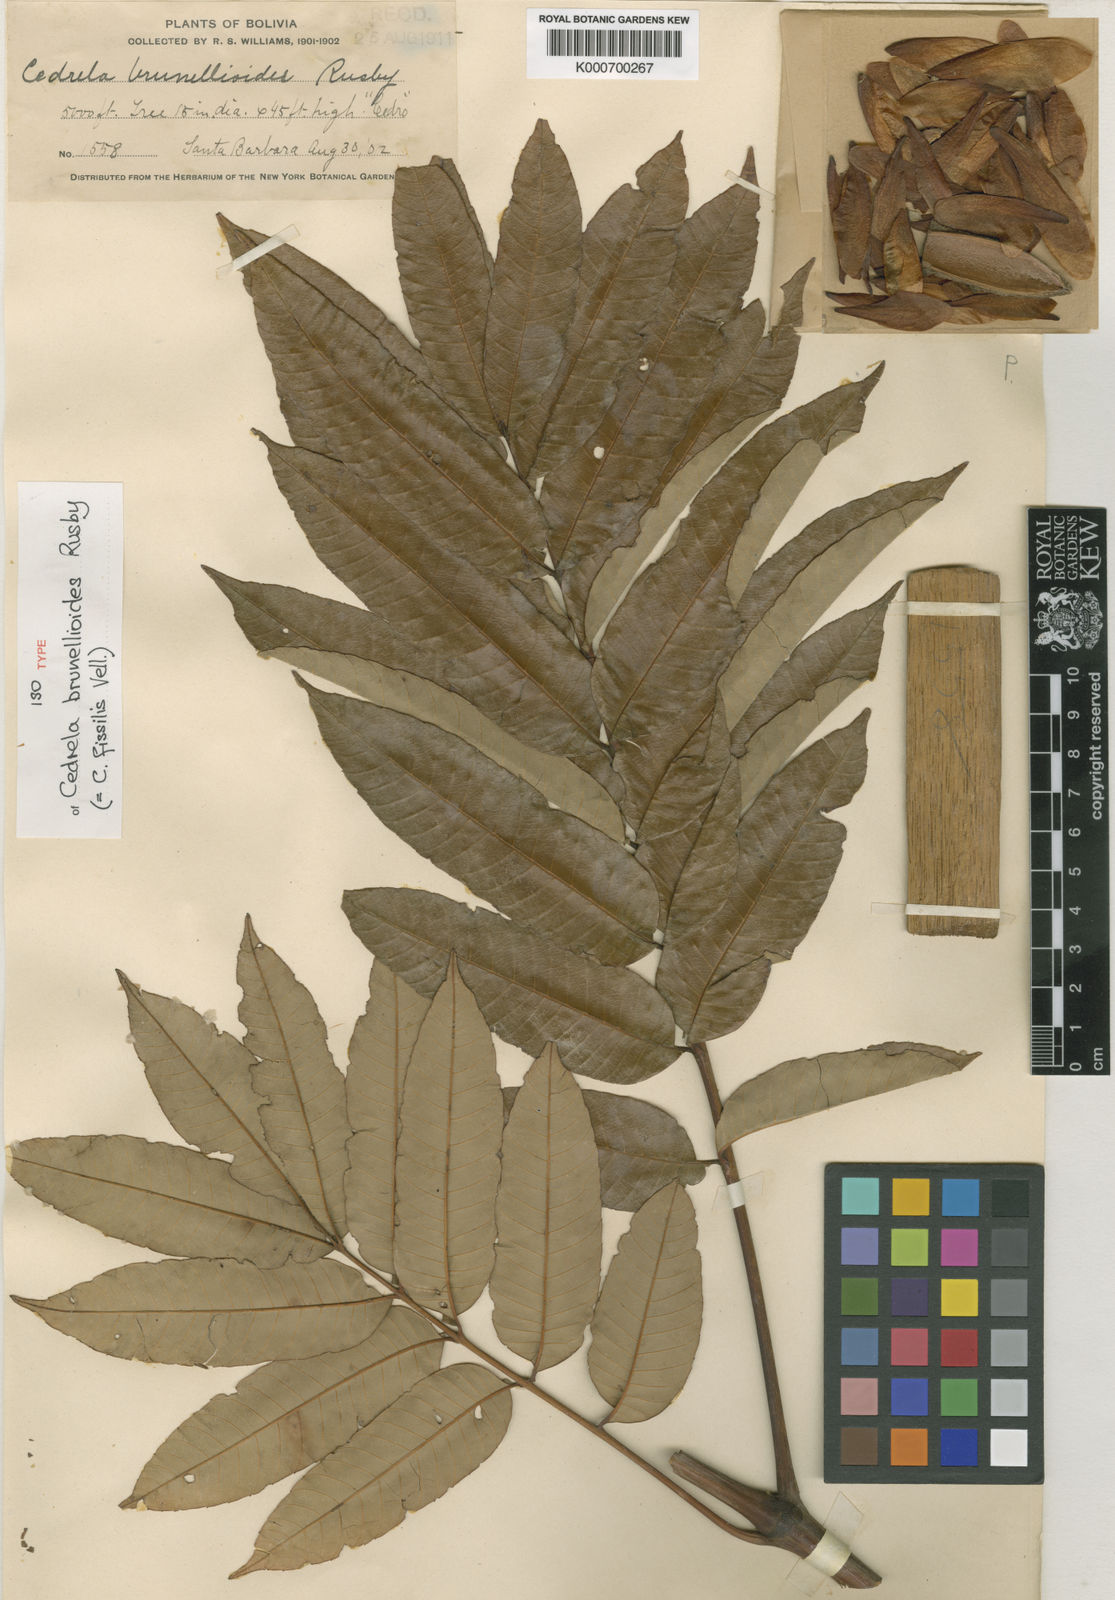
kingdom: Plantae
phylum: Tracheophyta
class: Magnoliopsida
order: Sapindales
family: Meliaceae
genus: Cedrela
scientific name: Cedrela fissilis
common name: Argentine cedar
